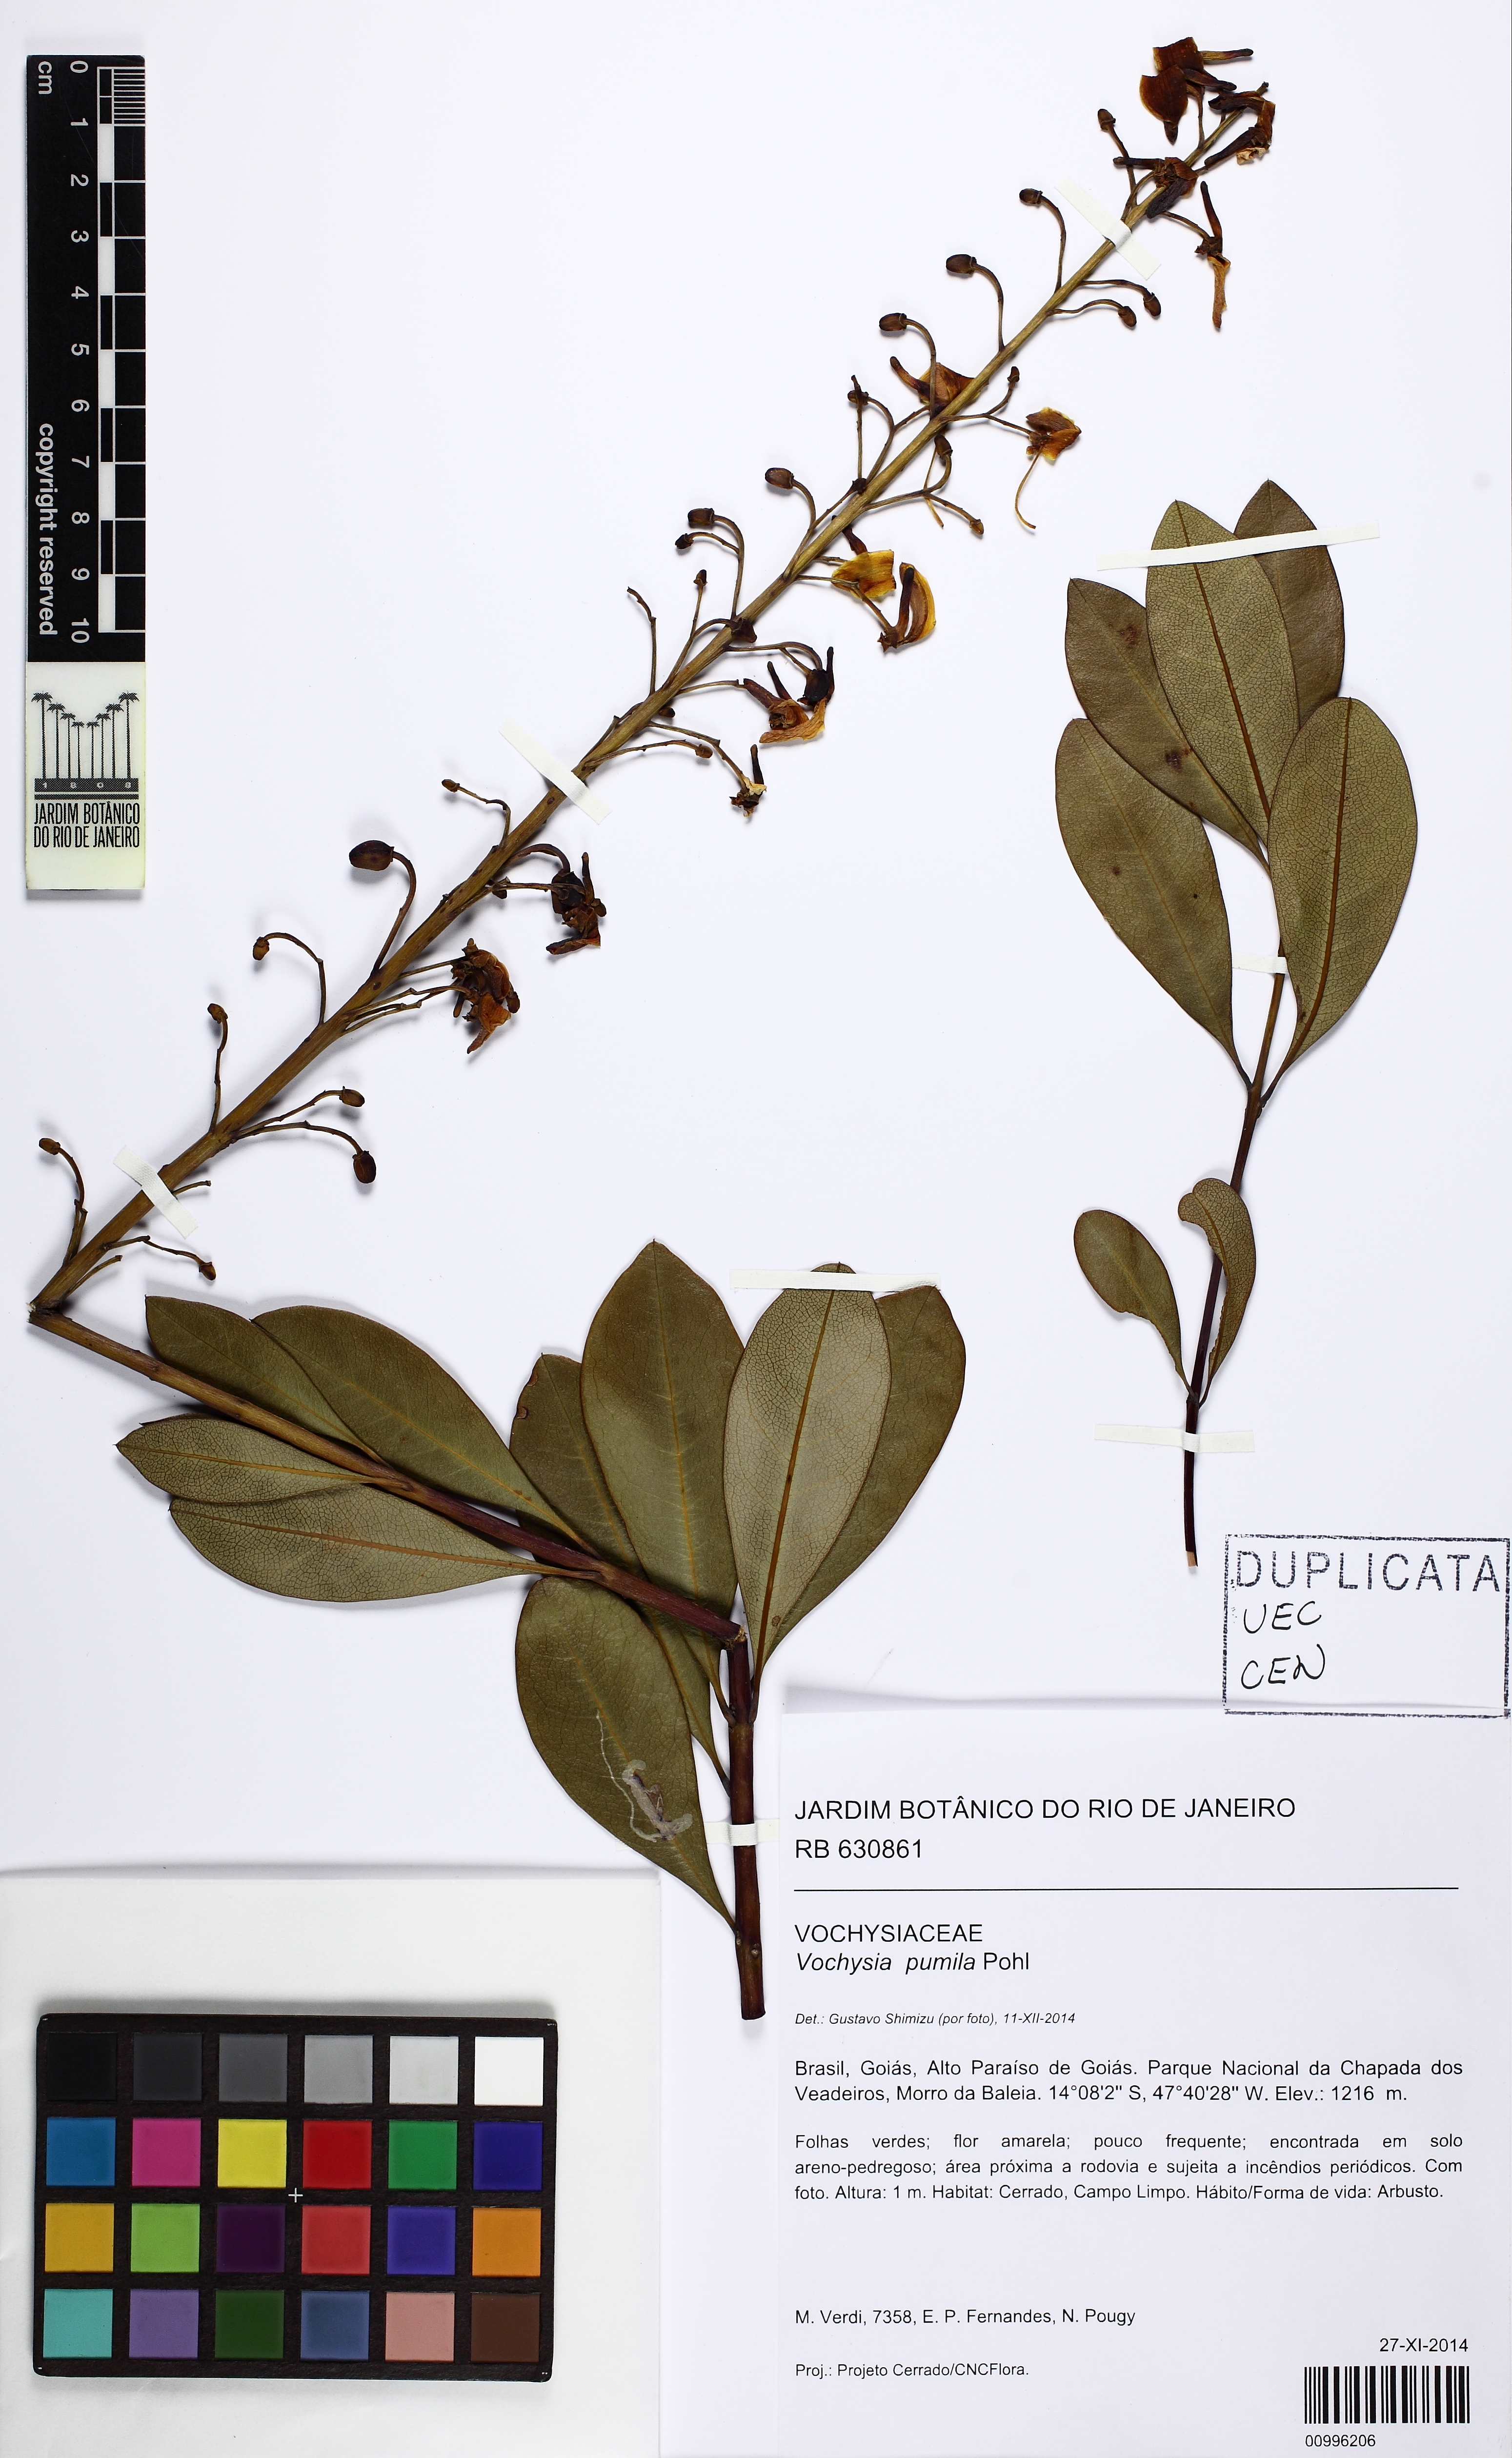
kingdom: Plantae
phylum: Tracheophyta
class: Magnoliopsida
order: Myrtales
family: Vochysiaceae
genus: Vochysia
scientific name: Vochysia pumila
